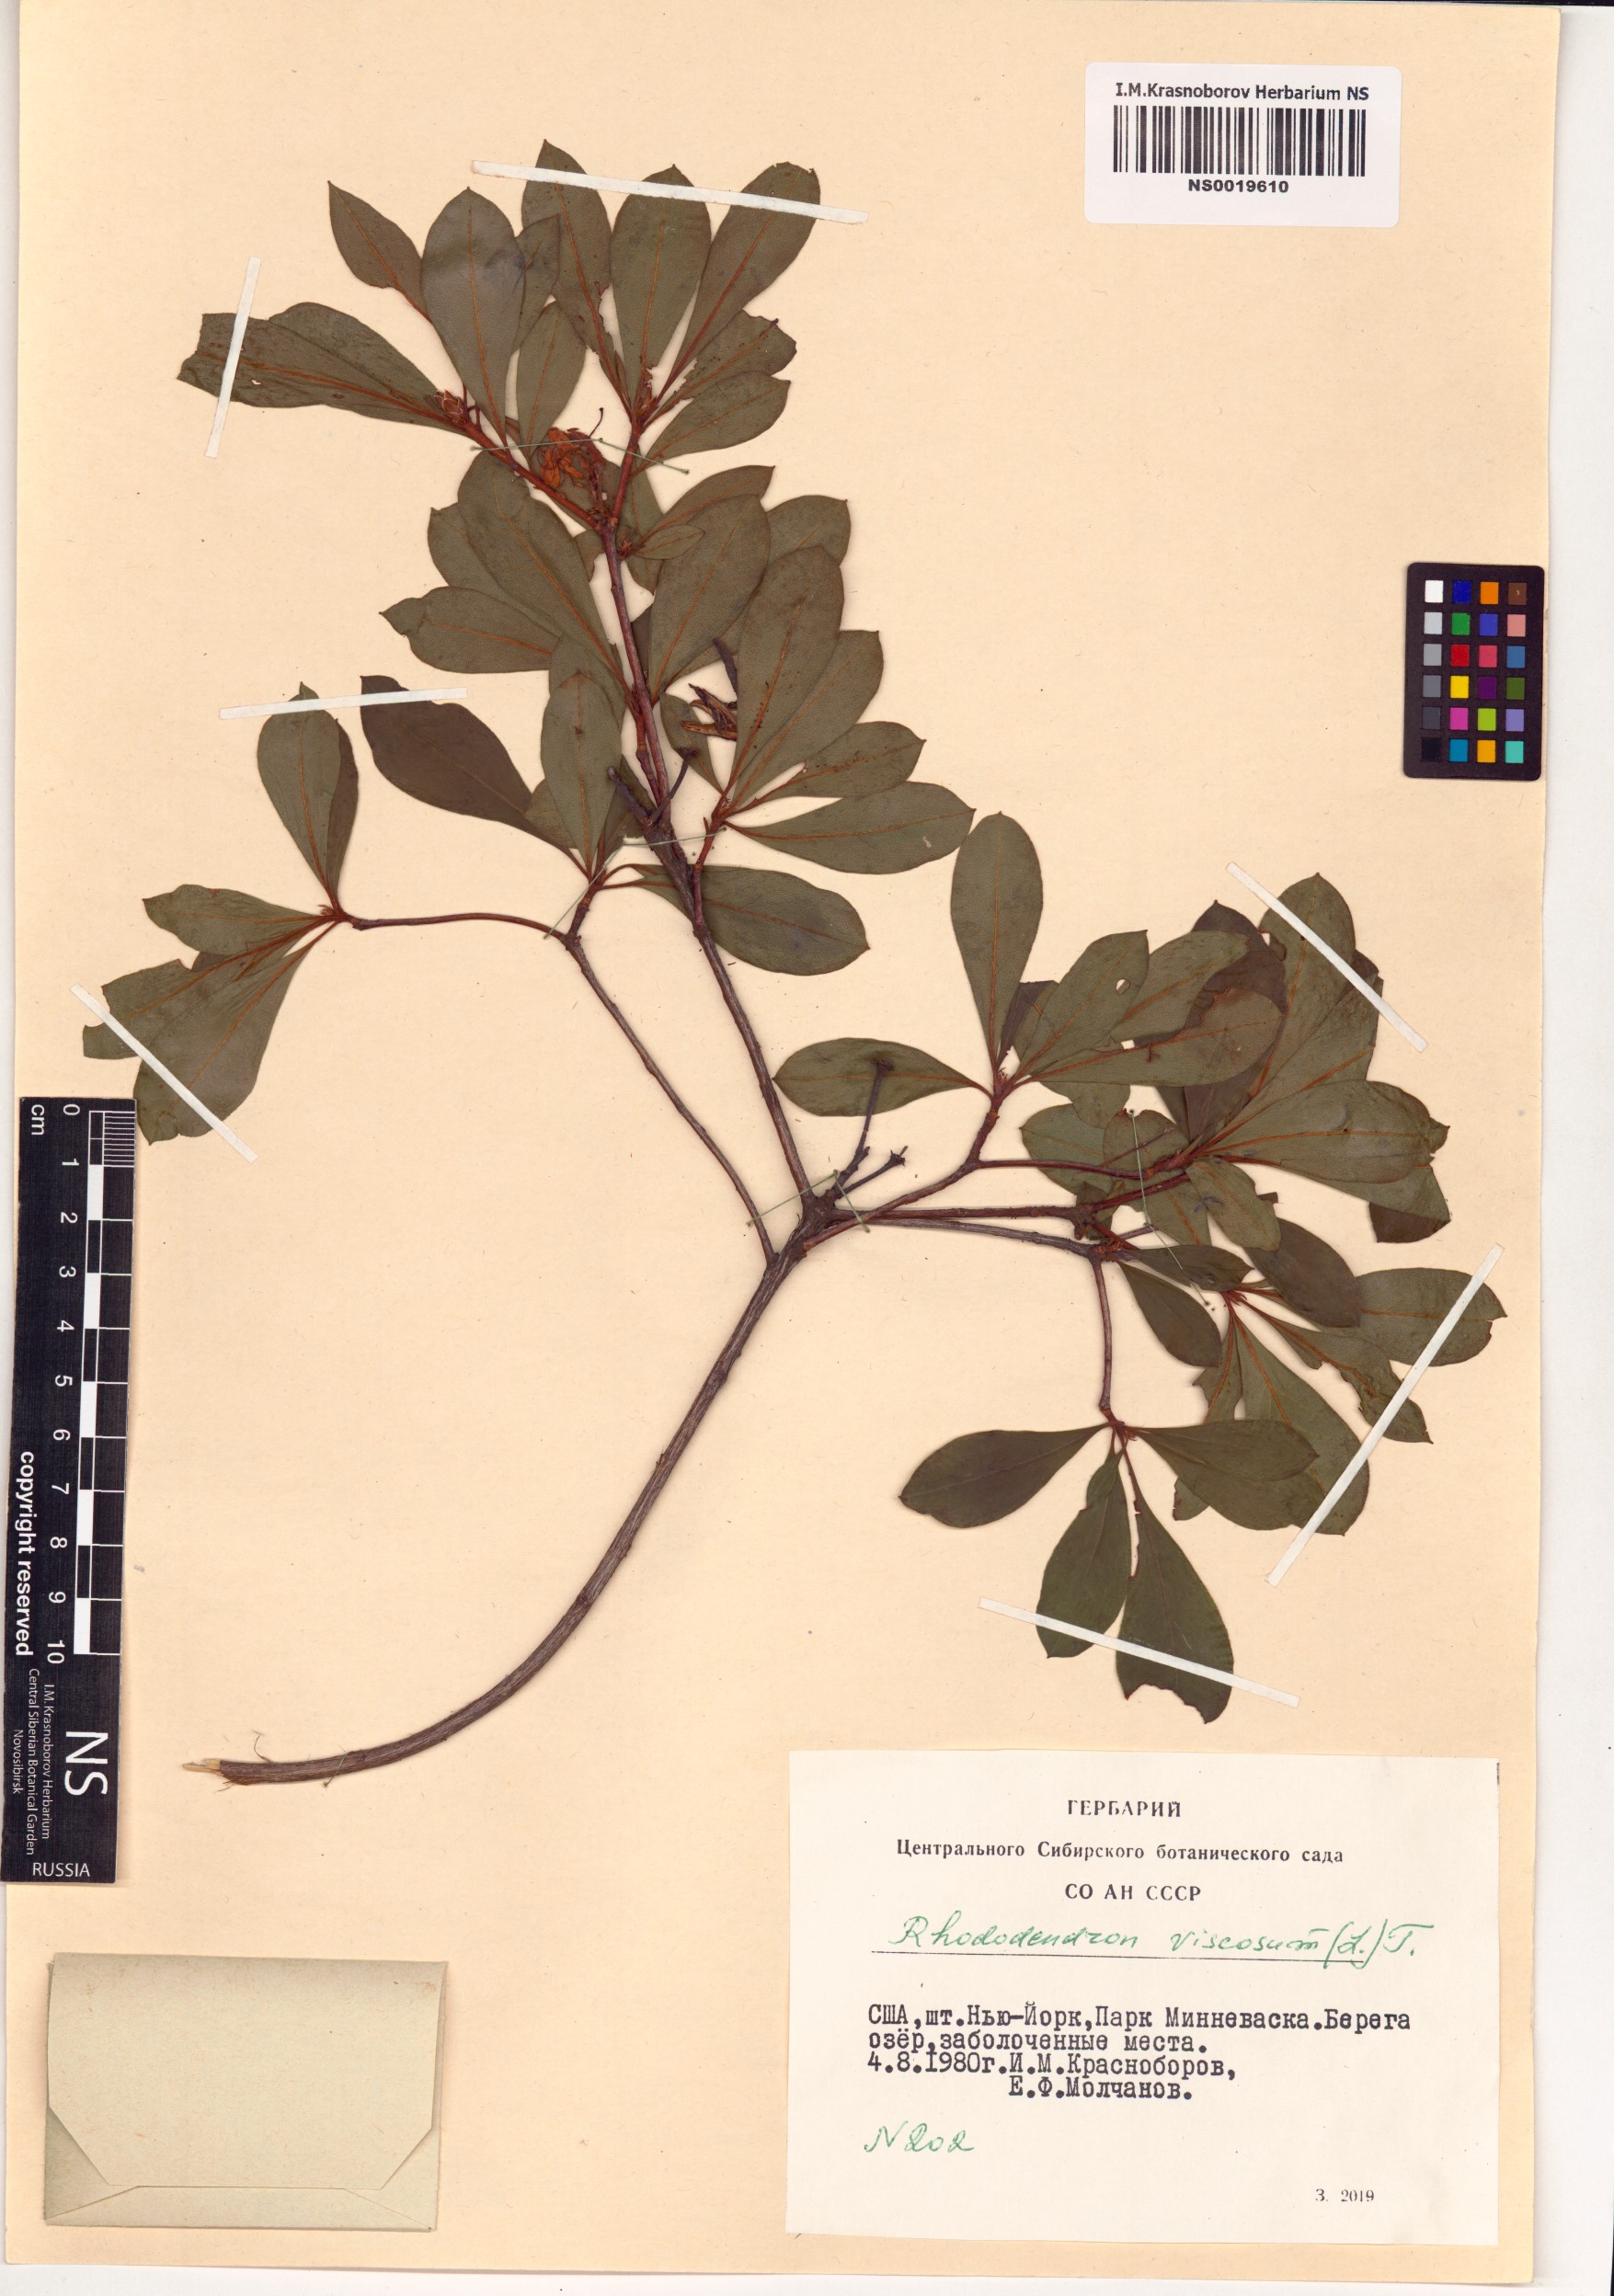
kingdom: Plantae
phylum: Tracheophyta
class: Magnoliopsida
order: Ericales
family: Ericaceae
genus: Rhododendron
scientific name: Rhododendron viscosum
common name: Clammy azalea
